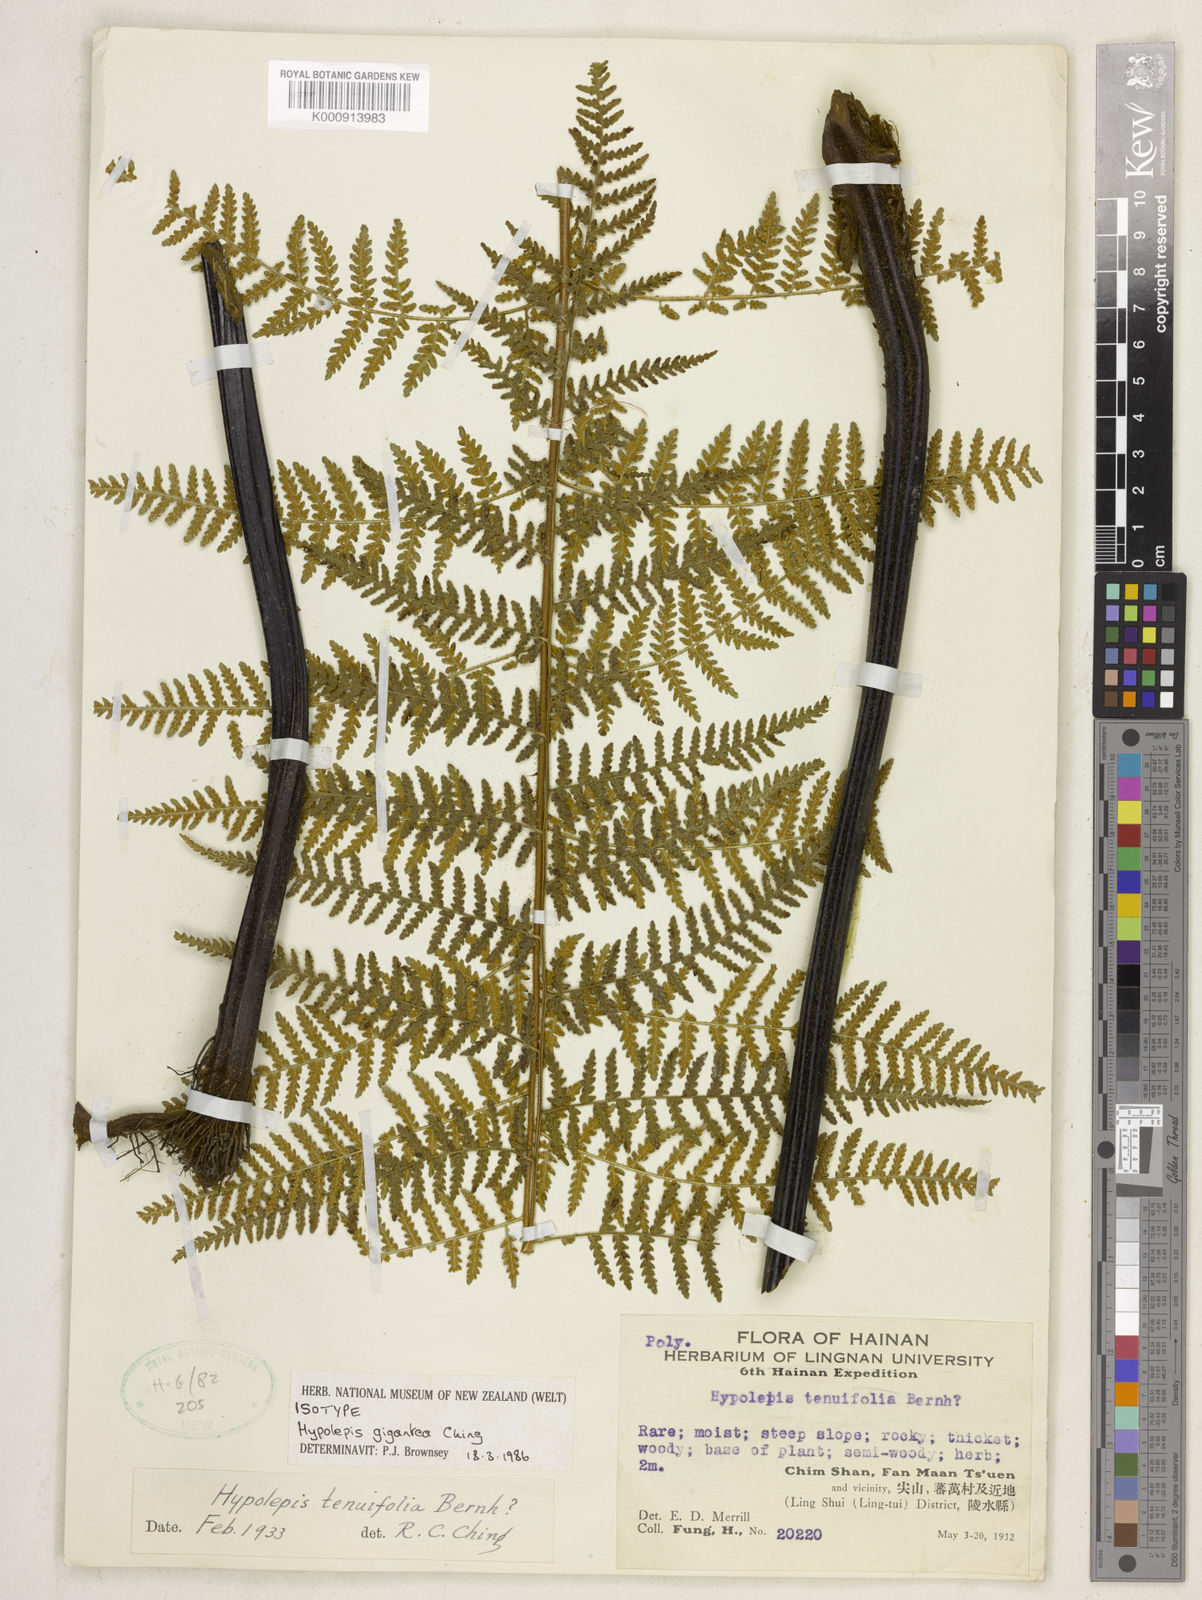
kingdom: Plantae
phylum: Tracheophyta
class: Polypodiopsida
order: Polypodiales
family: Dennstaedtiaceae
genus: Hypolepis
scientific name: Hypolepis tenuifolia
